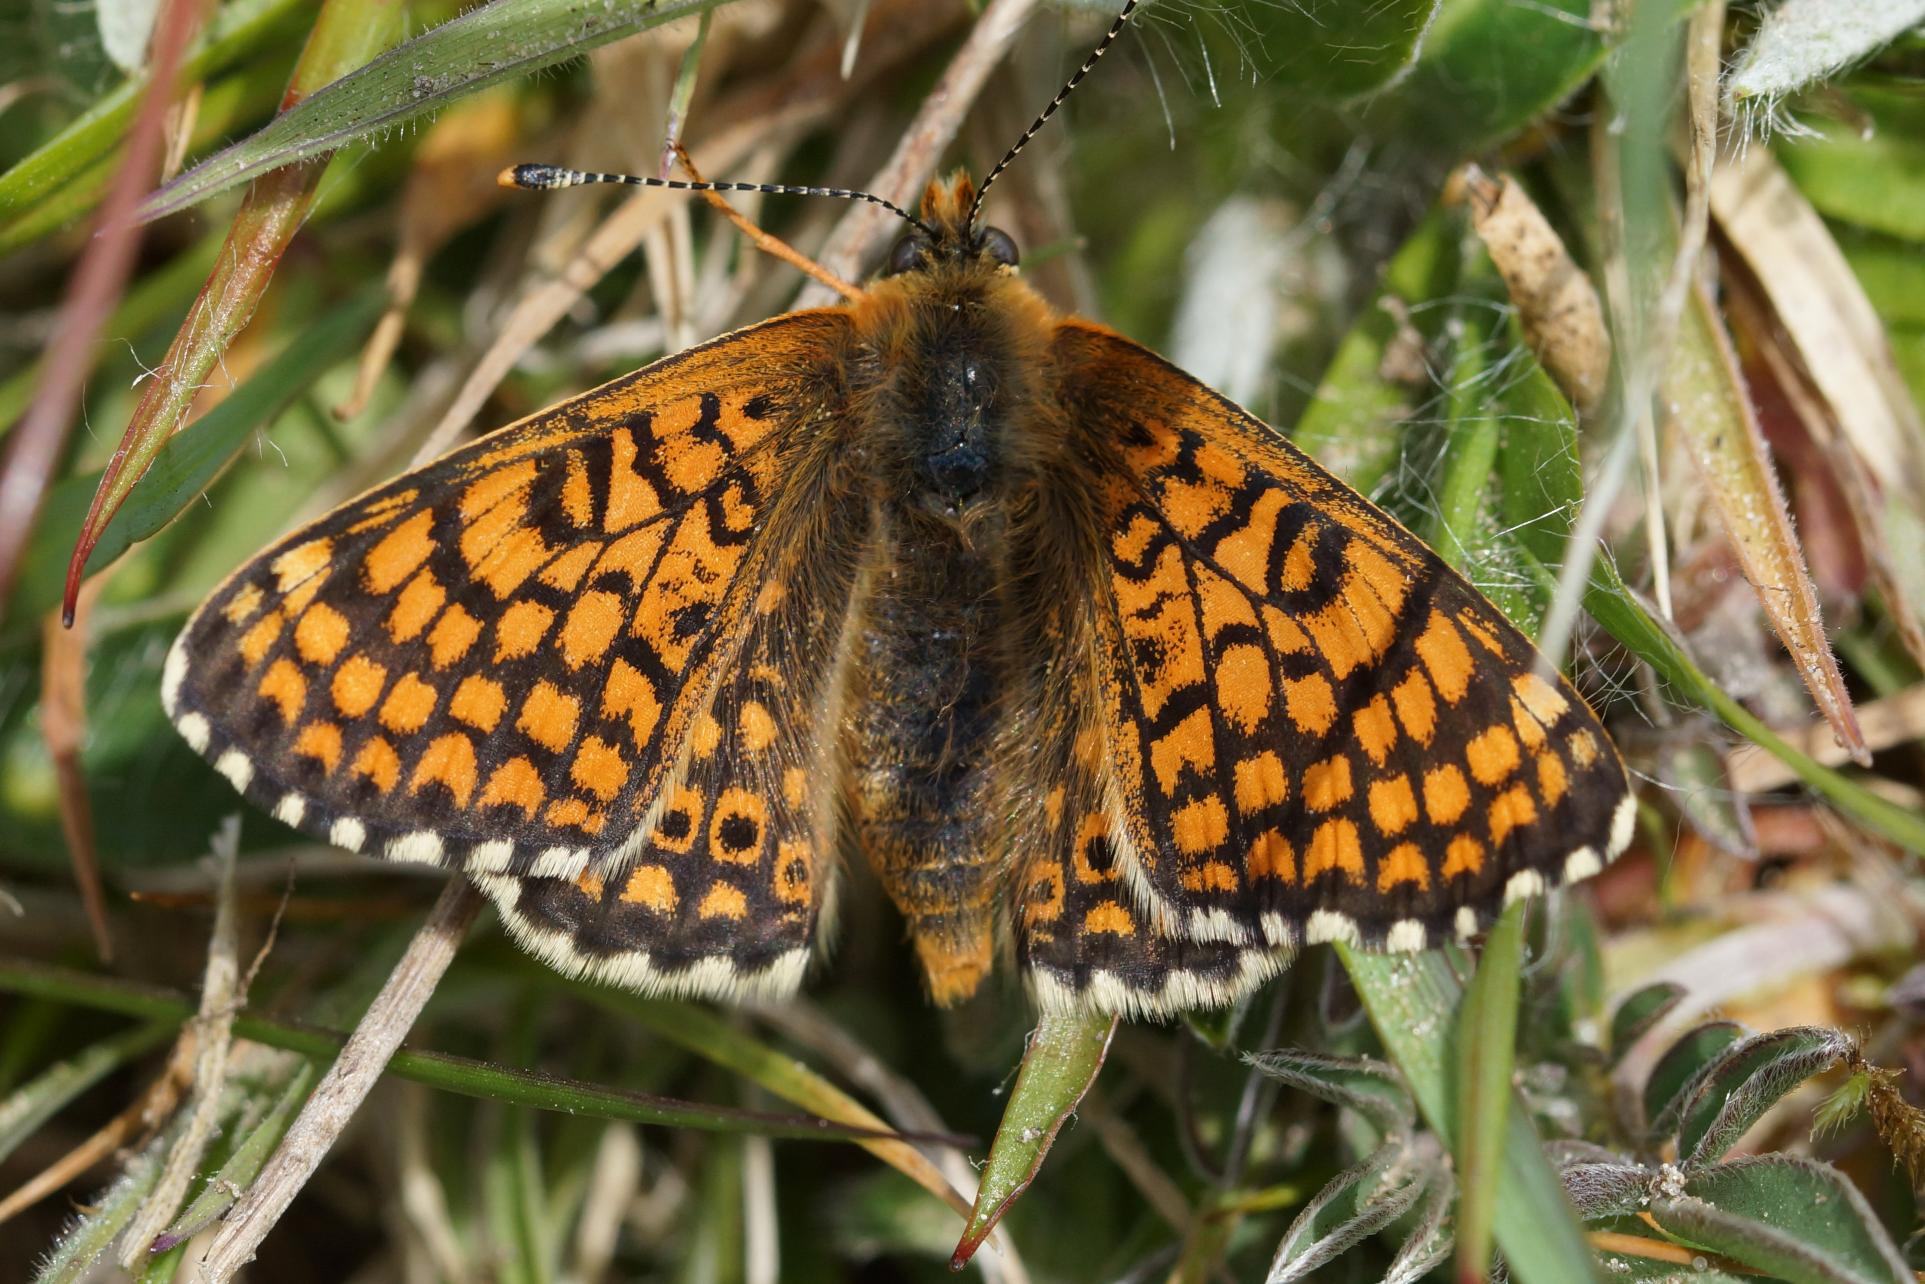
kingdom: Animalia
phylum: Arthropoda
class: Insecta
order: Lepidoptera
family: Nymphalidae
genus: Melitaea
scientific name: Melitaea cinxia
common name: Okkergul pletvinge
